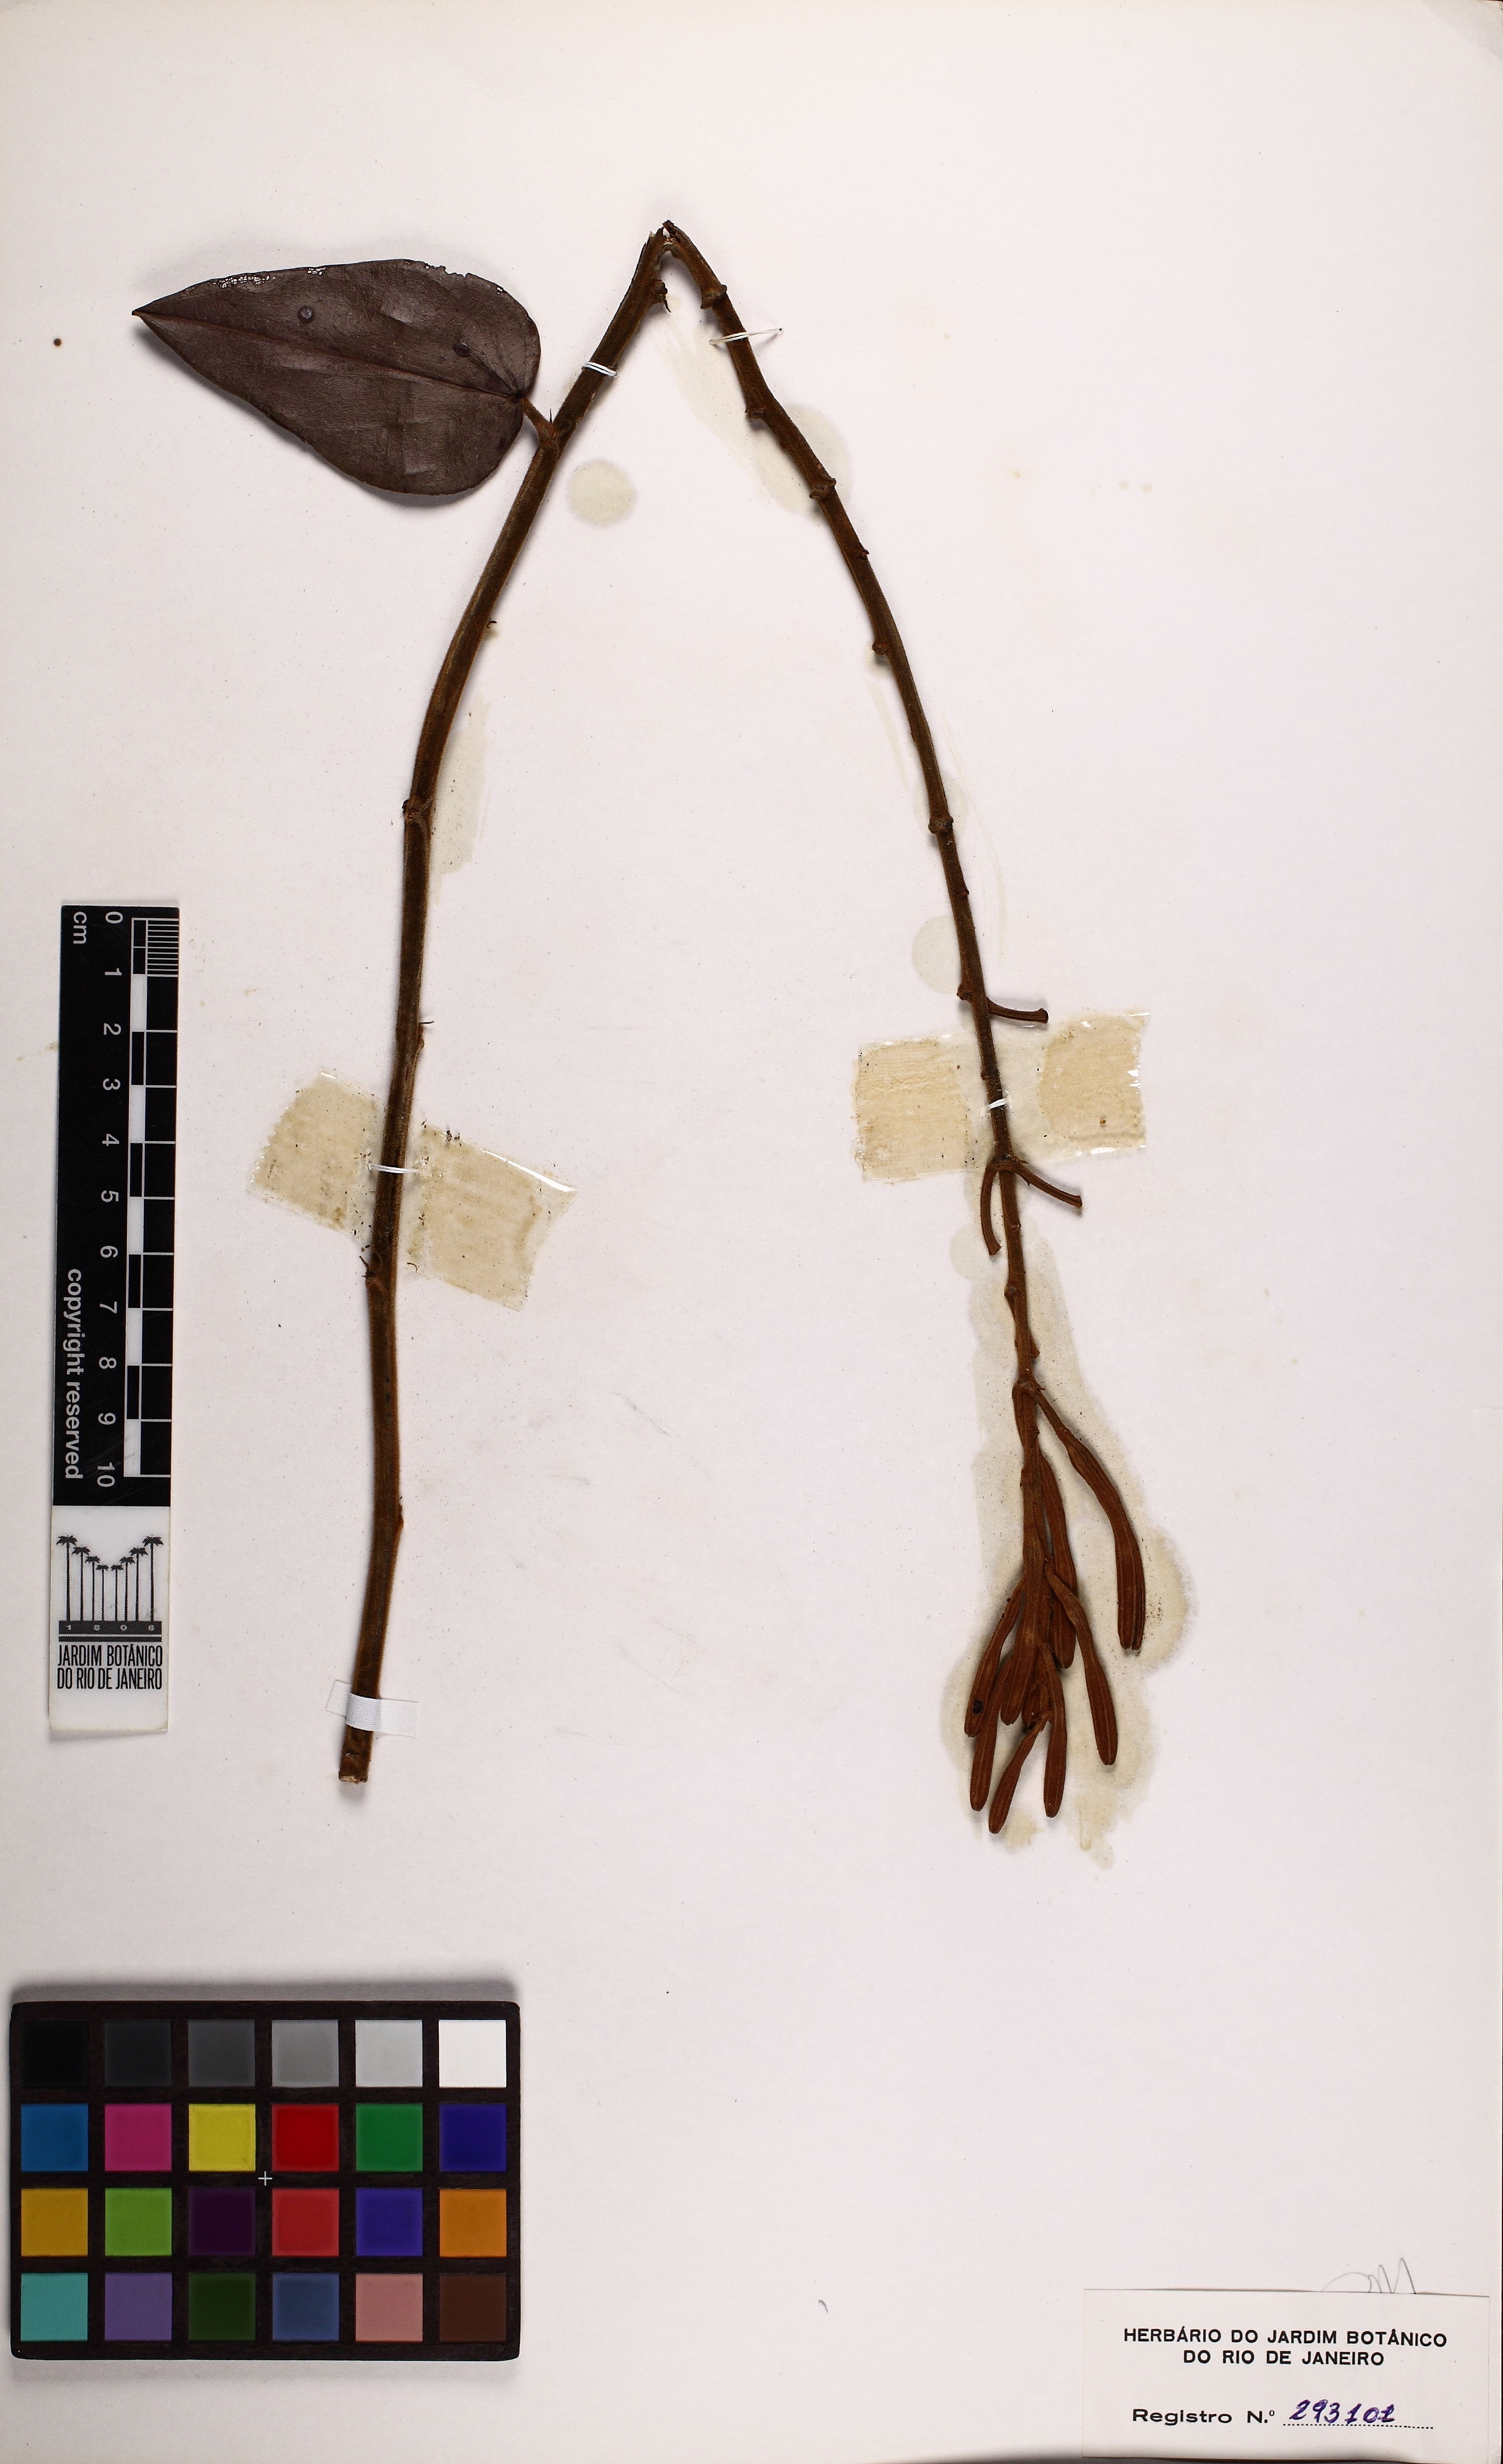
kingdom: Plantae
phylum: Tracheophyta
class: Magnoliopsida
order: Fabales
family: Fabaceae
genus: Bauhinia
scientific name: Bauhinia holophylla
